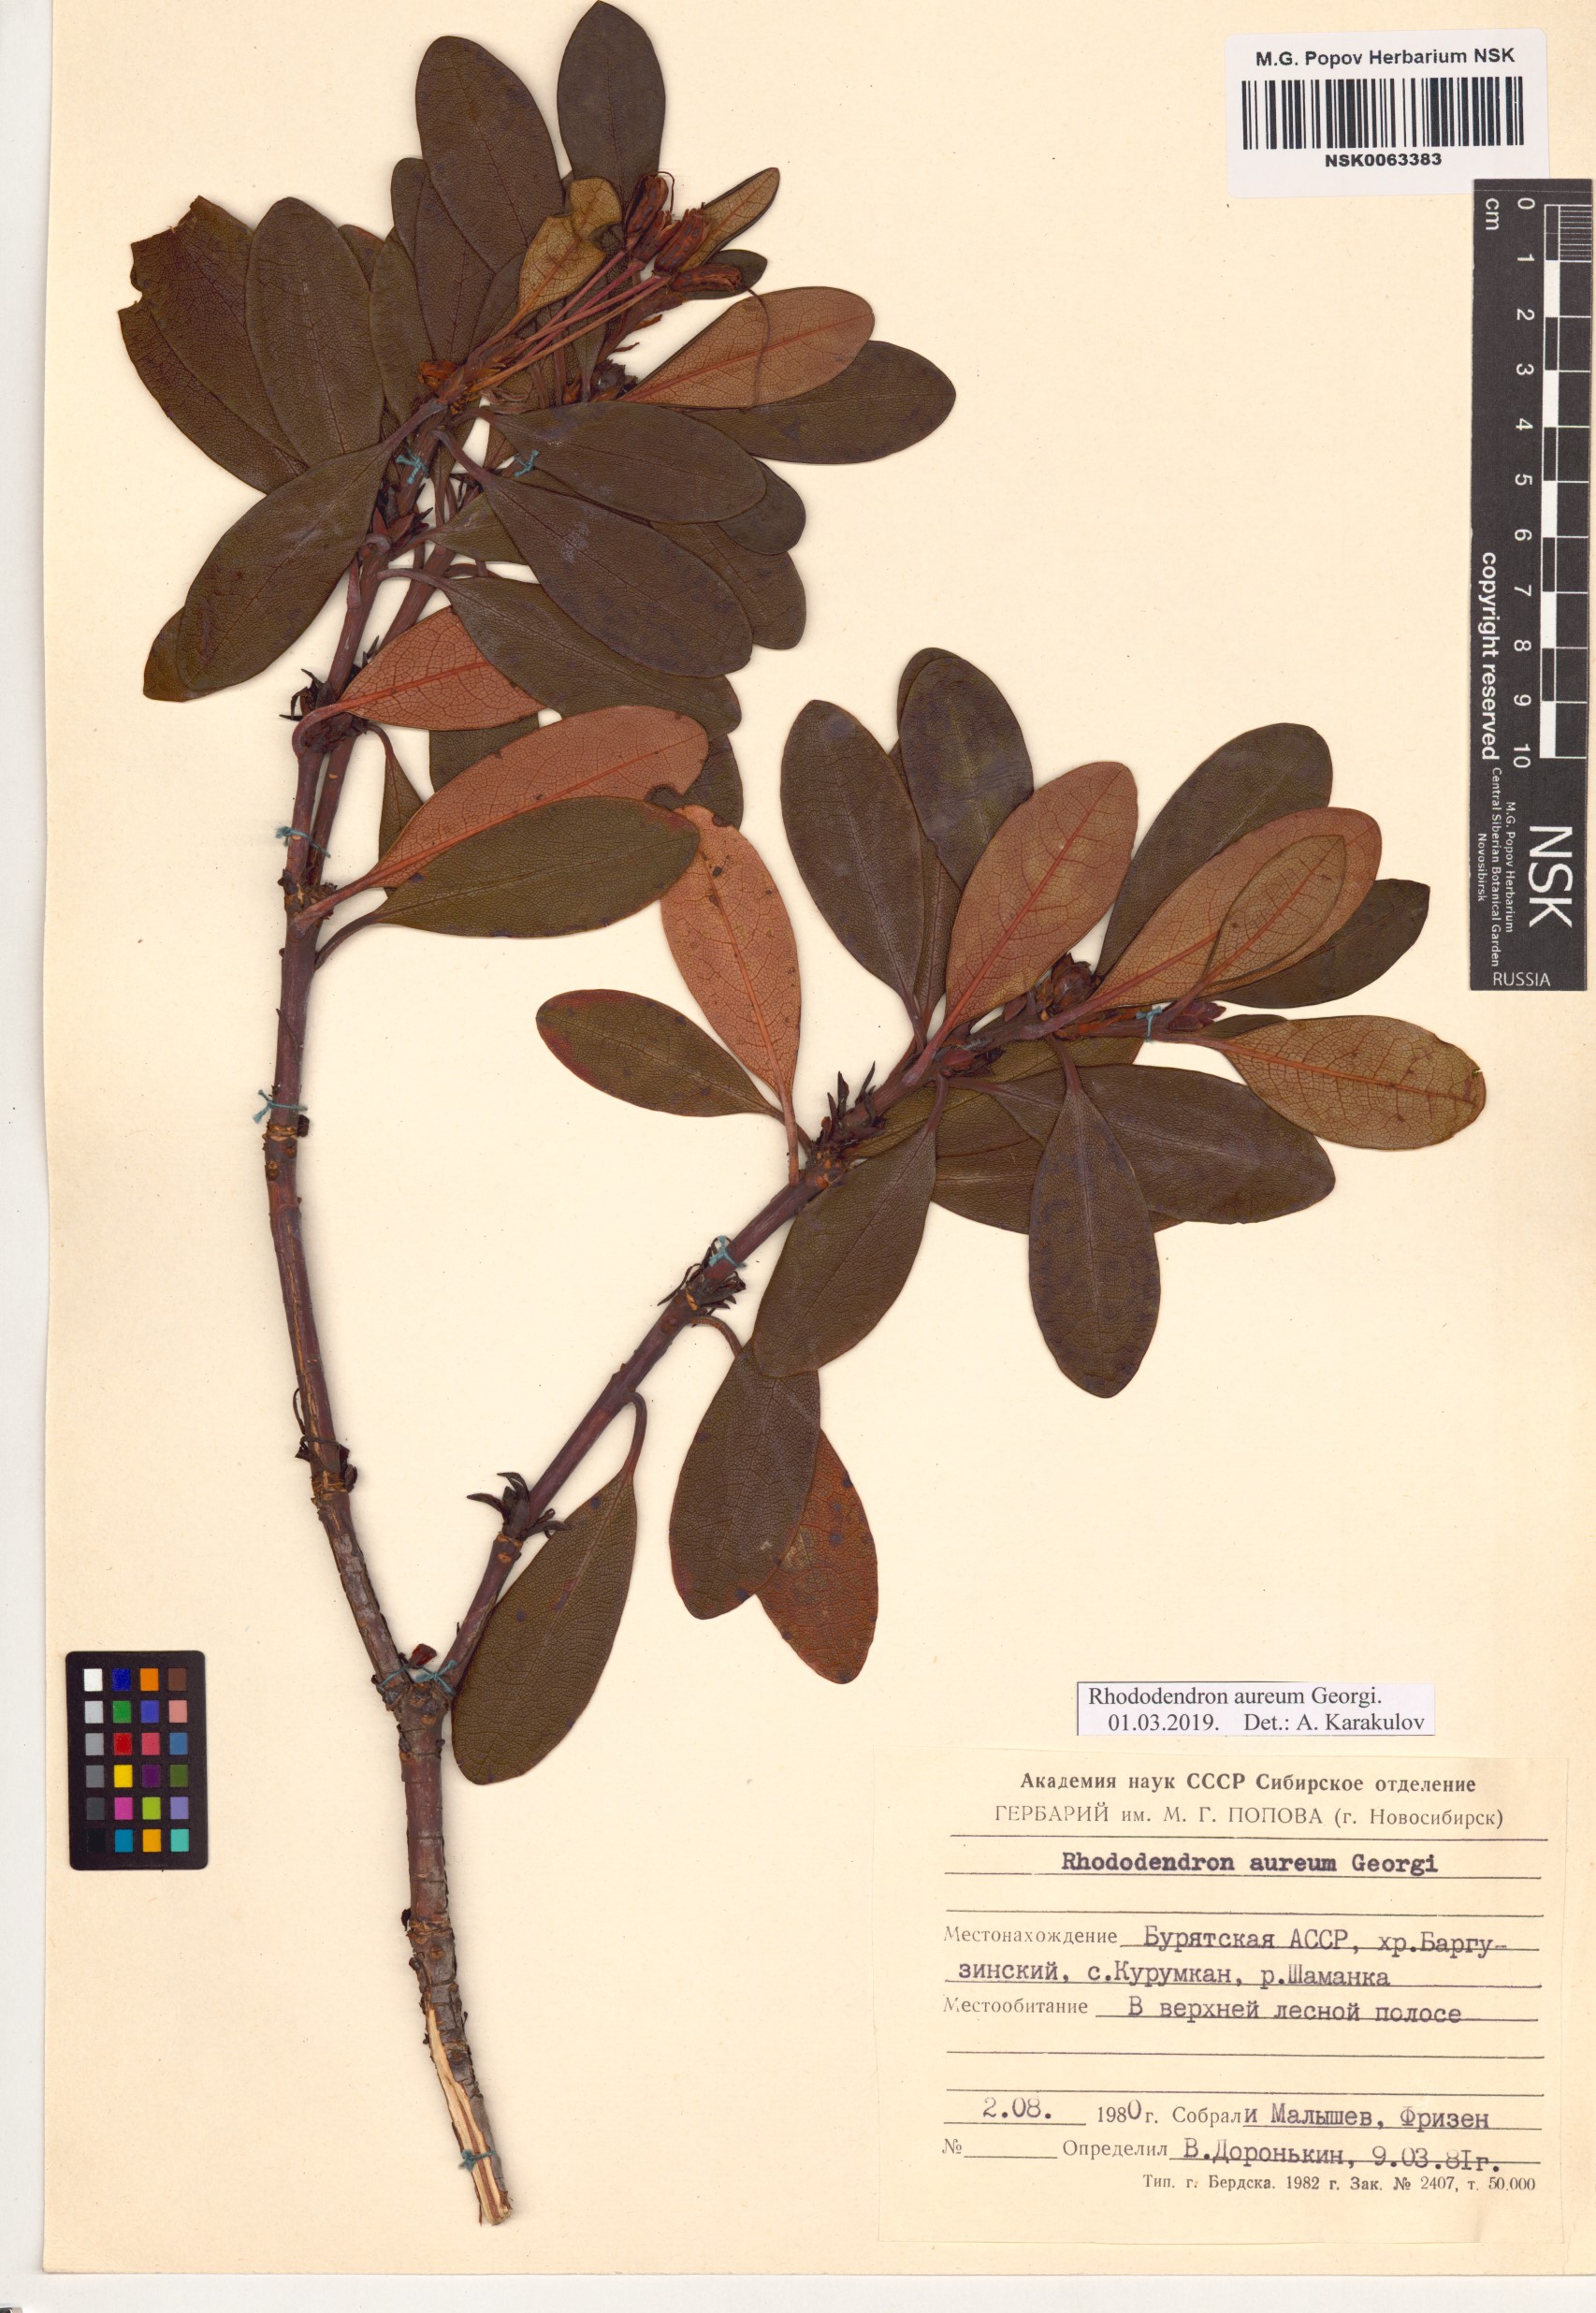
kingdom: Plantae
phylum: Tracheophyta
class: Magnoliopsida
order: Ericales
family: Ericaceae
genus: Rhododendron
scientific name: Rhododendron aureum
